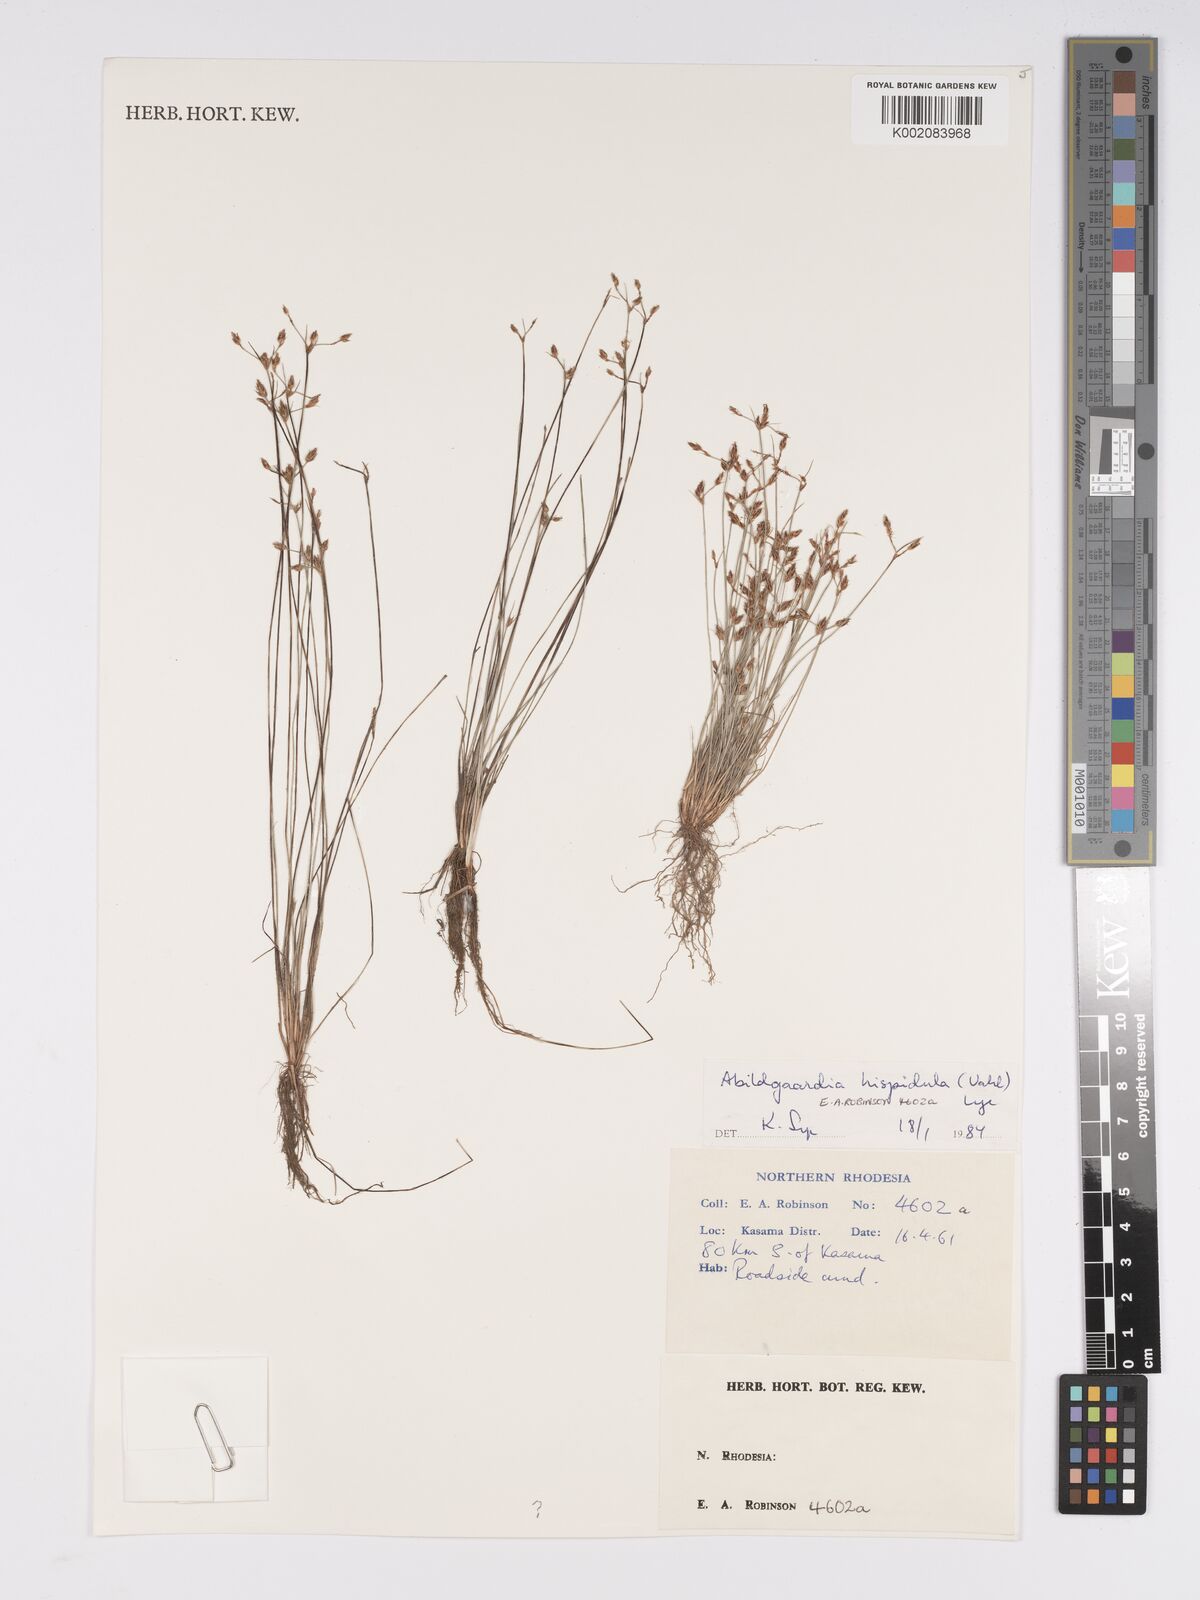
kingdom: Plantae
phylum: Tracheophyta
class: Liliopsida
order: Poales
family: Cyperaceae
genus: Bulbostylis
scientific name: Bulbostylis hispidula
